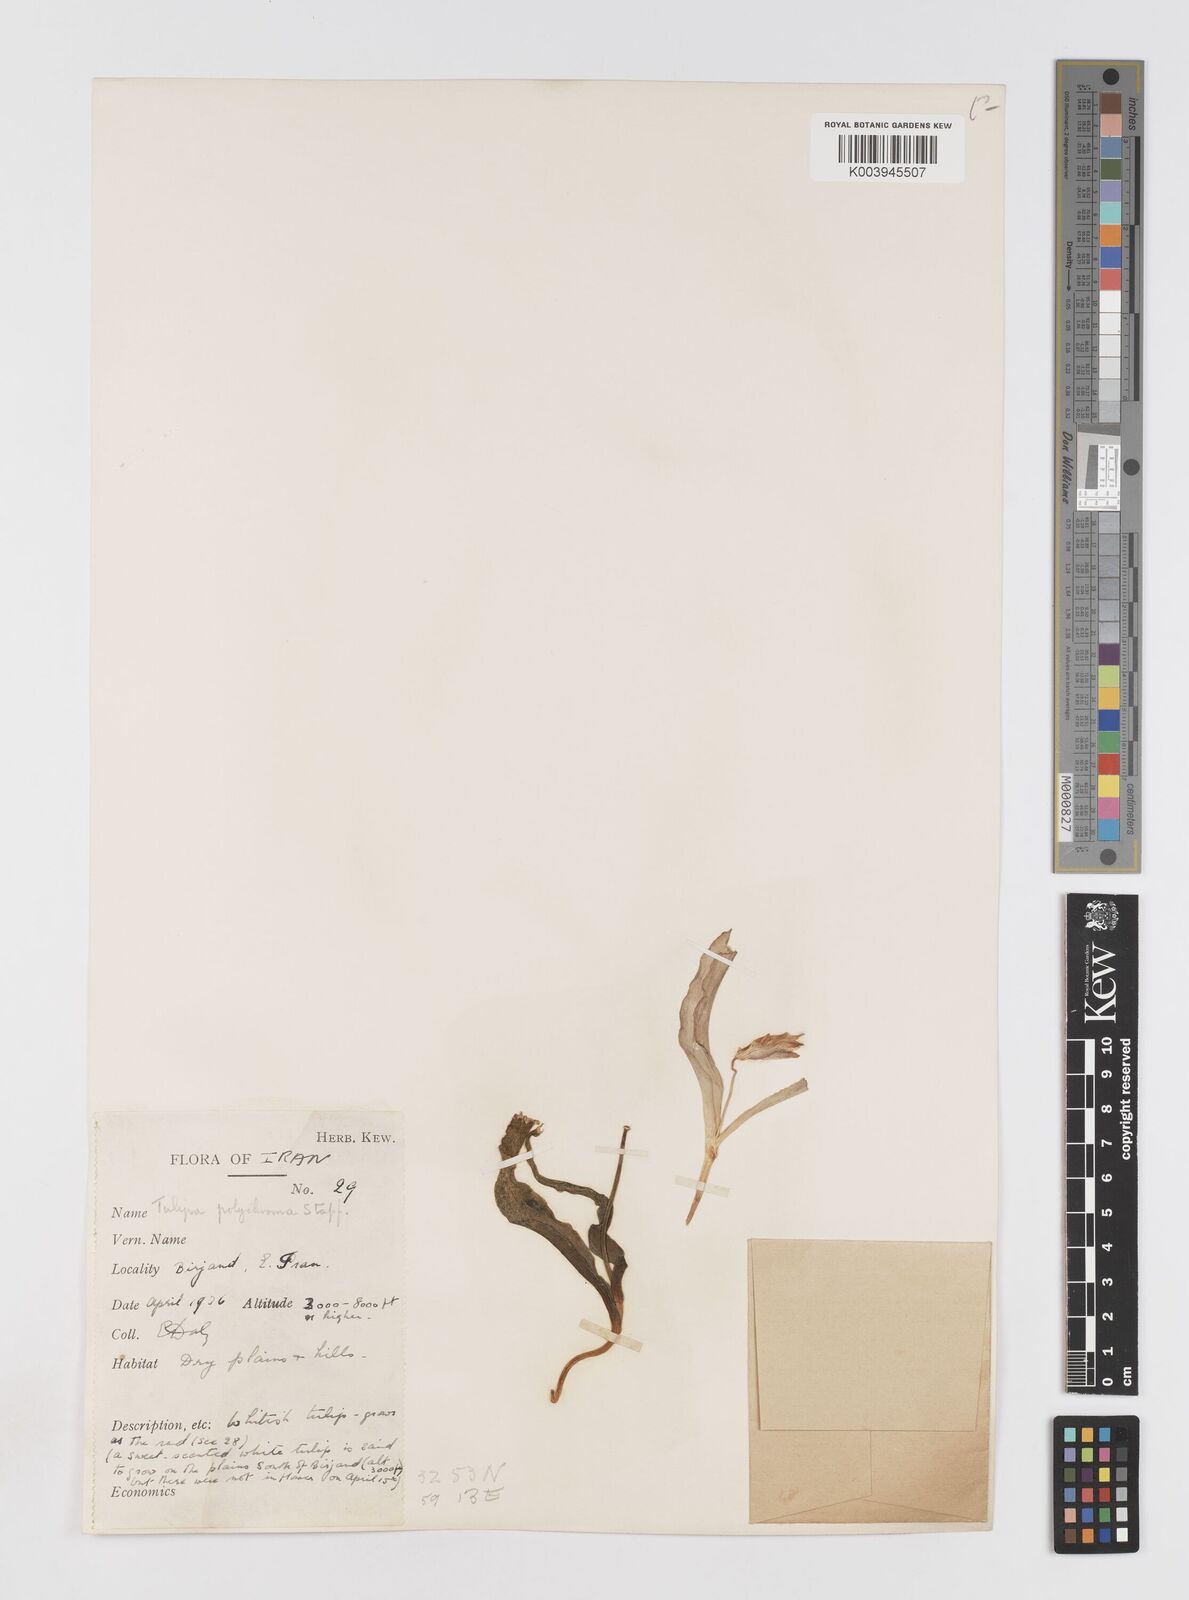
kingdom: Plantae
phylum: Tracheophyta
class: Liliopsida
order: Liliales
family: Liliaceae
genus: Tulipa
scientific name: Tulipa biflora
